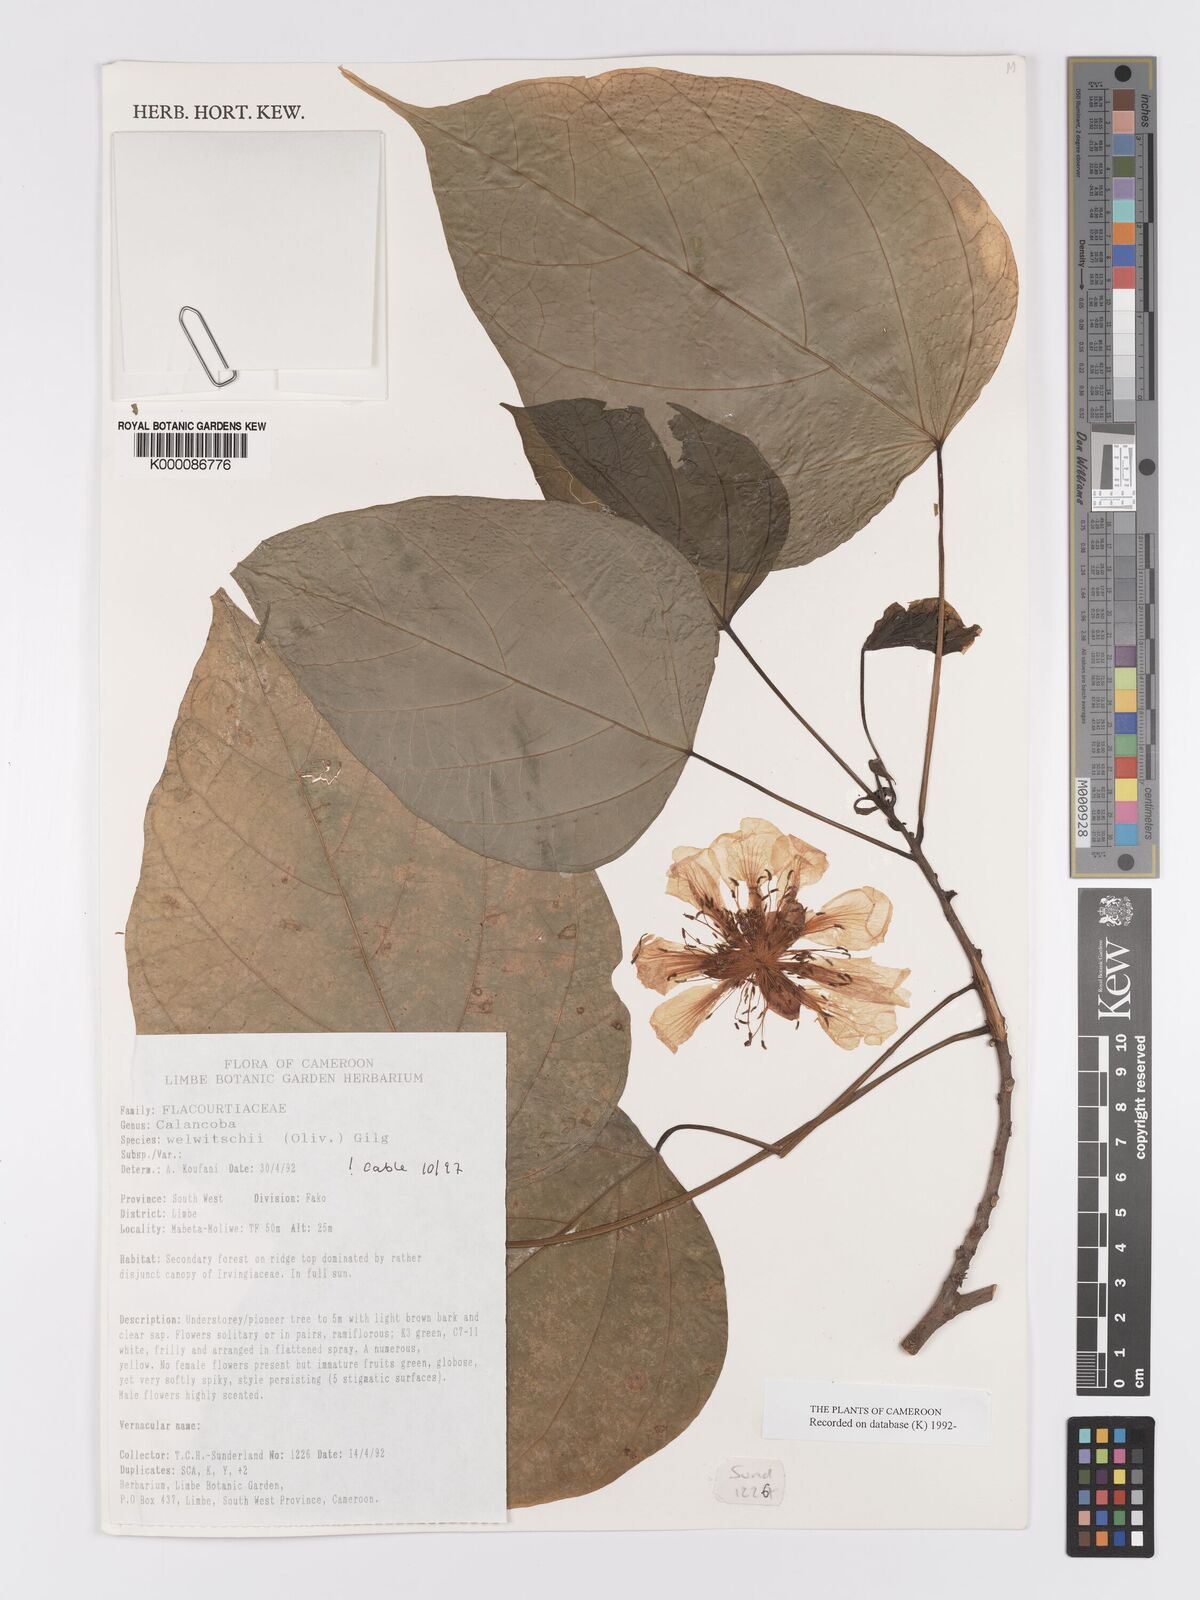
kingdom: Plantae
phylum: Tracheophyta
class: Magnoliopsida
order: Malpighiales
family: Achariaceae
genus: Caloncoba
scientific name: Caloncoba welwitschii
